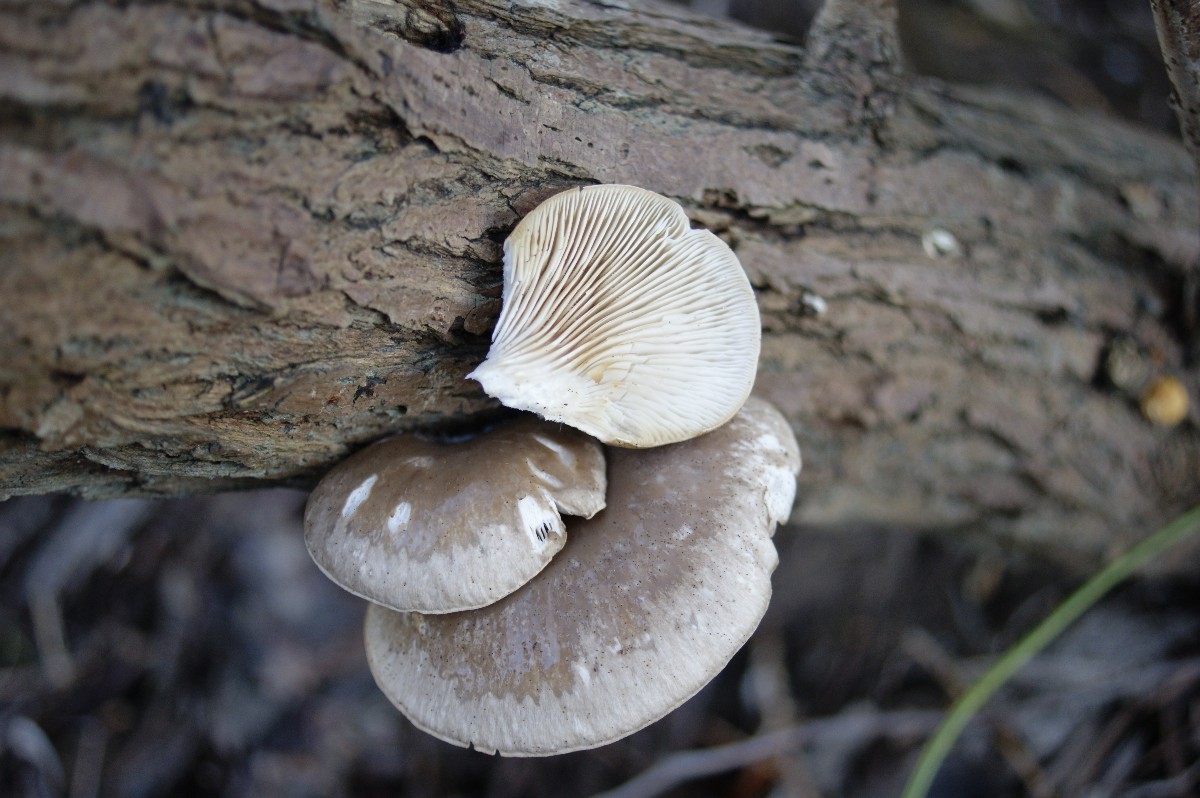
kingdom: Fungi
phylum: Basidiomycota
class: Agaricomycetes
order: Agaricales
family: Pleurotaceae
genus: Pleurotus
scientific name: Pleurotus
